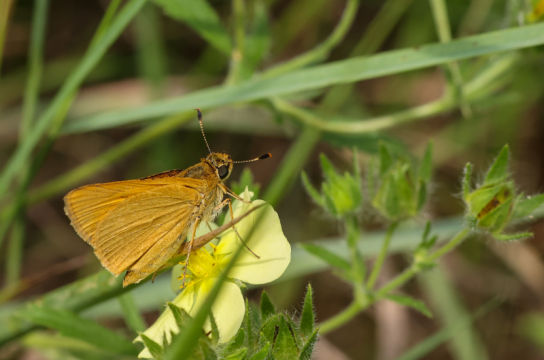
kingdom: Animalia
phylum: Arthropoda
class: Insecta
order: Lepidoptera
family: Hesperiidae
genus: Atrytone
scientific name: Atrytone delaware
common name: Delaware Skipper
